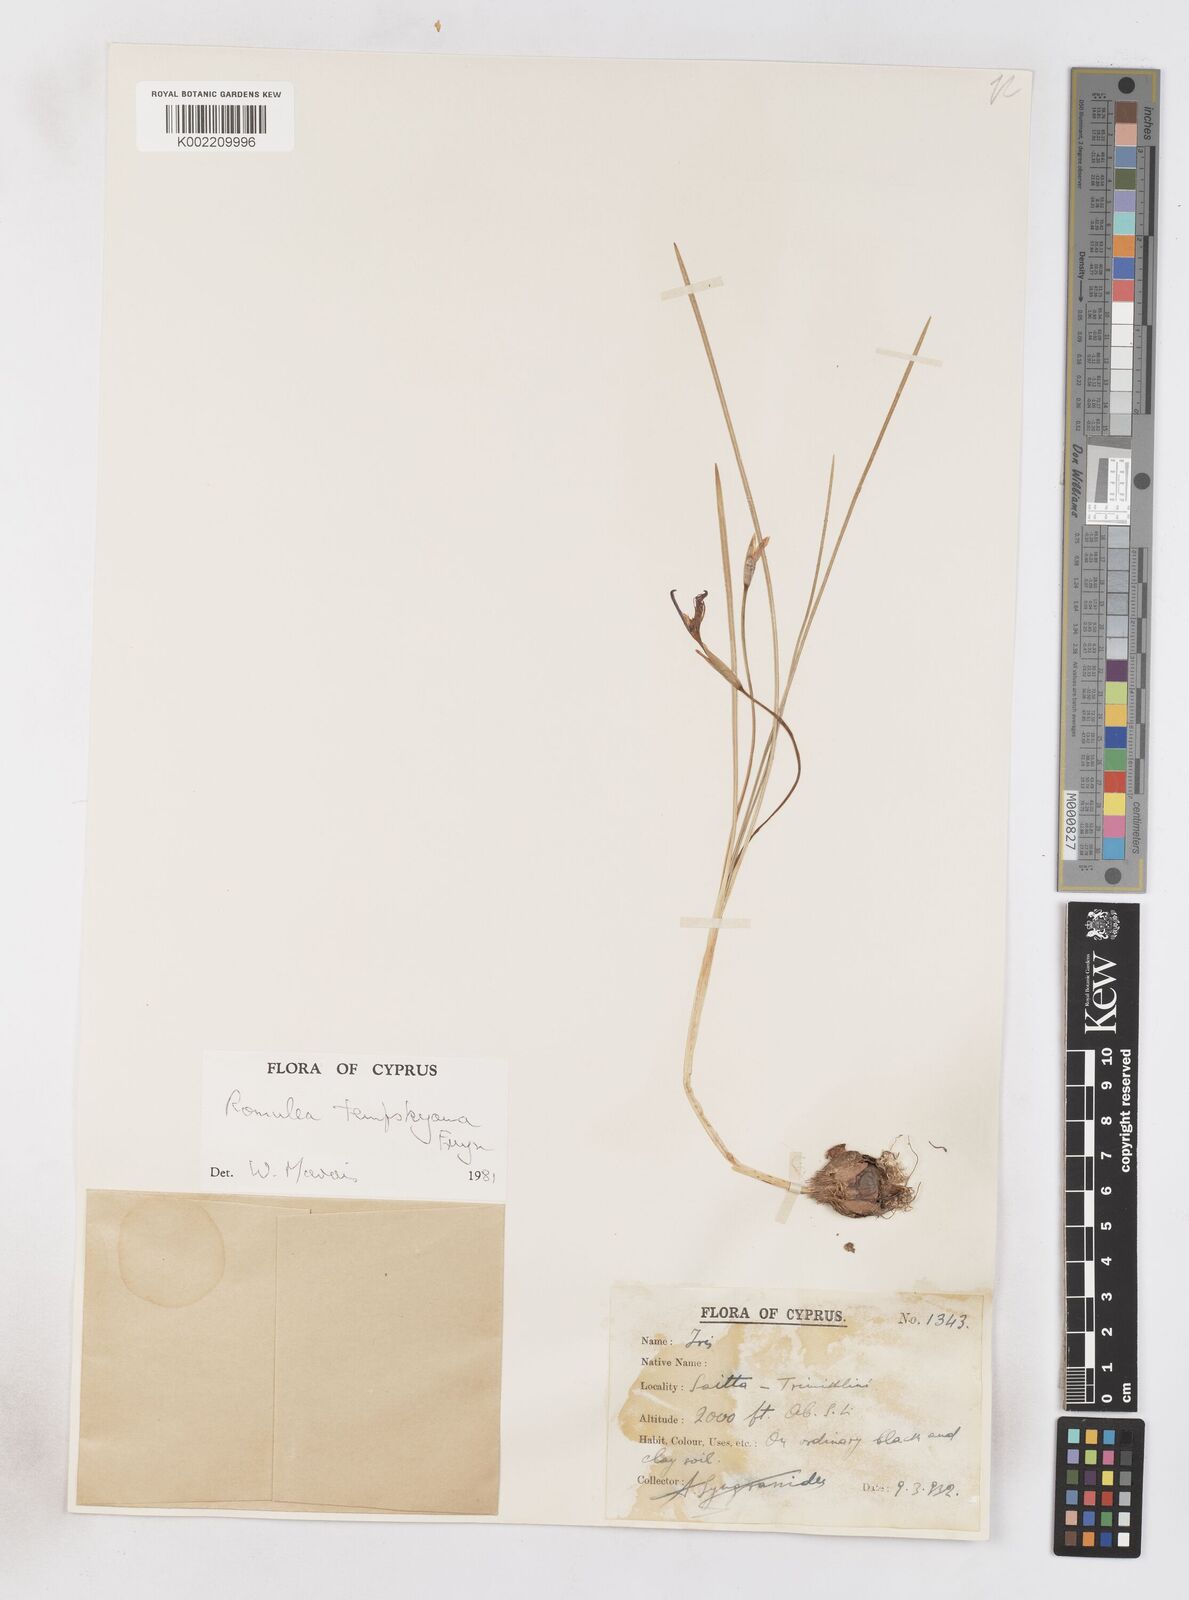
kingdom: Plantae
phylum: Tracheophyta
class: Liliopsida
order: Asparagales
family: Iridaceae
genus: Romulea
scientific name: Romulea tempskyana
